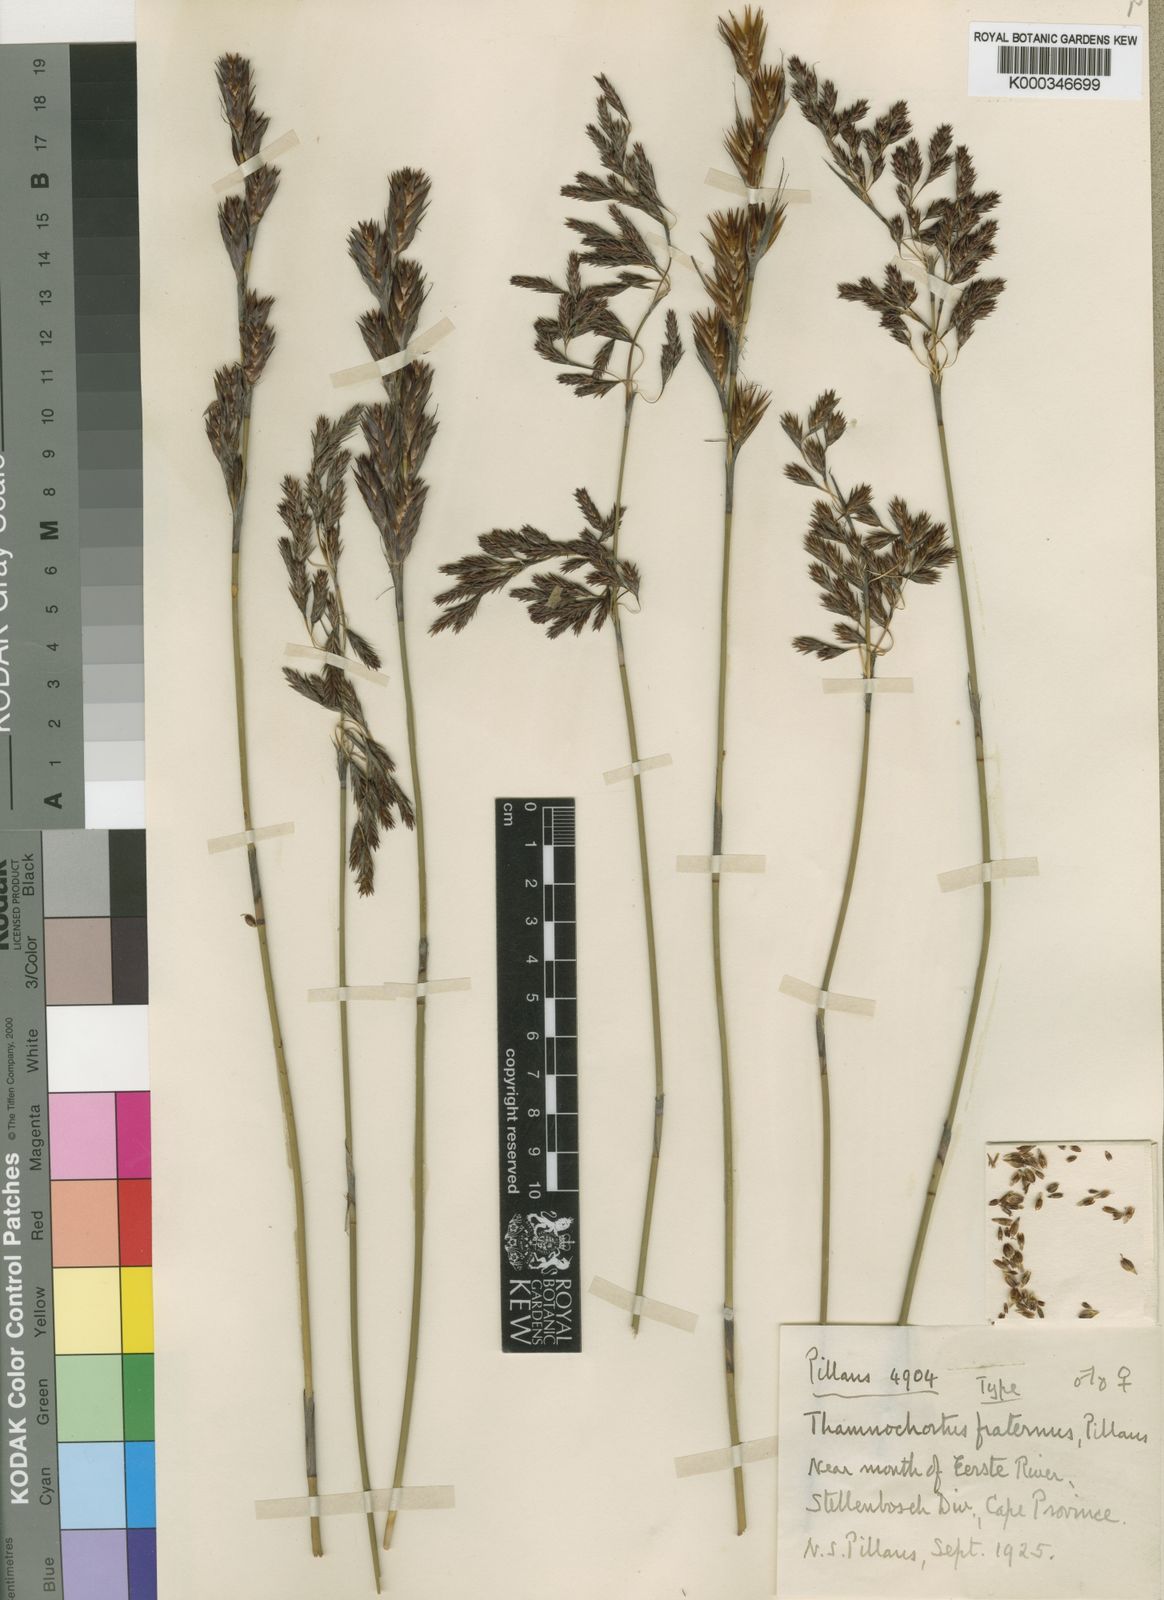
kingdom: Plantae
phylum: Tracheophyta
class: Liliopsida
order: Poales
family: Restionaceae
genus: Thamnochortus
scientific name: Thamnochortus fraternus
